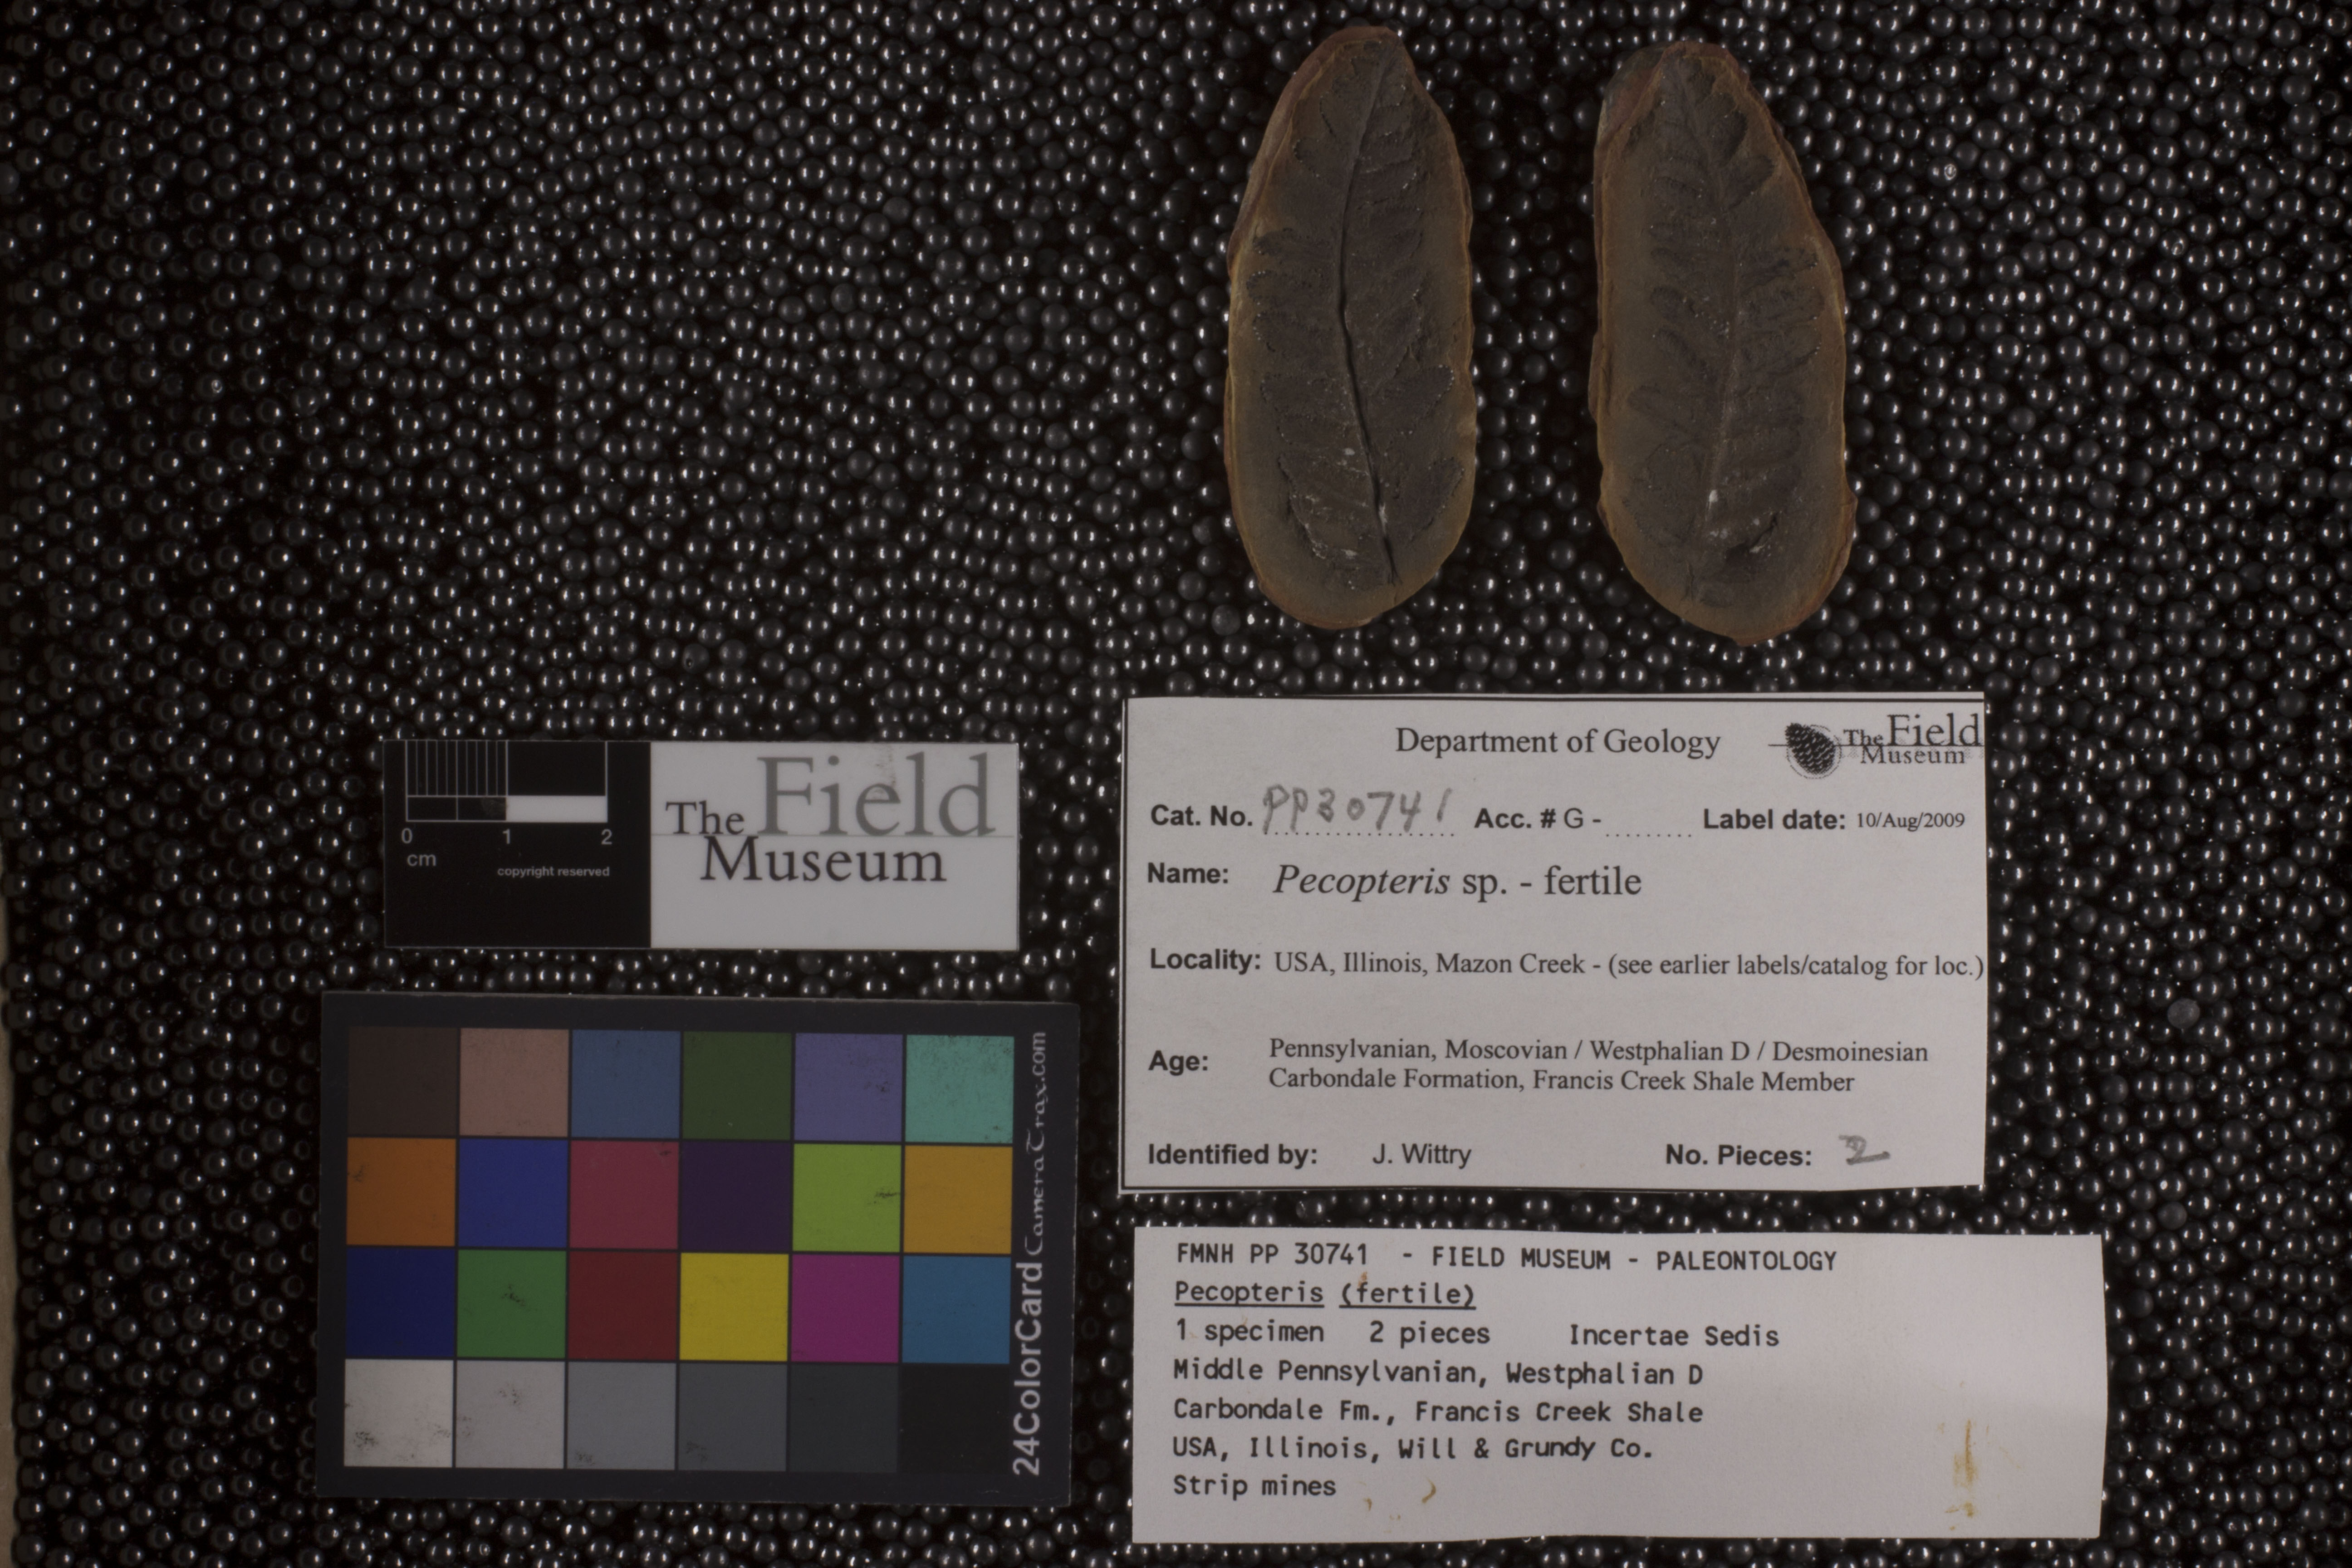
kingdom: Plantae
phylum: Tracheophyta
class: Polypodiopsida
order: Marattiales
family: Asterothecaceae
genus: Pecopteris
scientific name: Pecopteris
